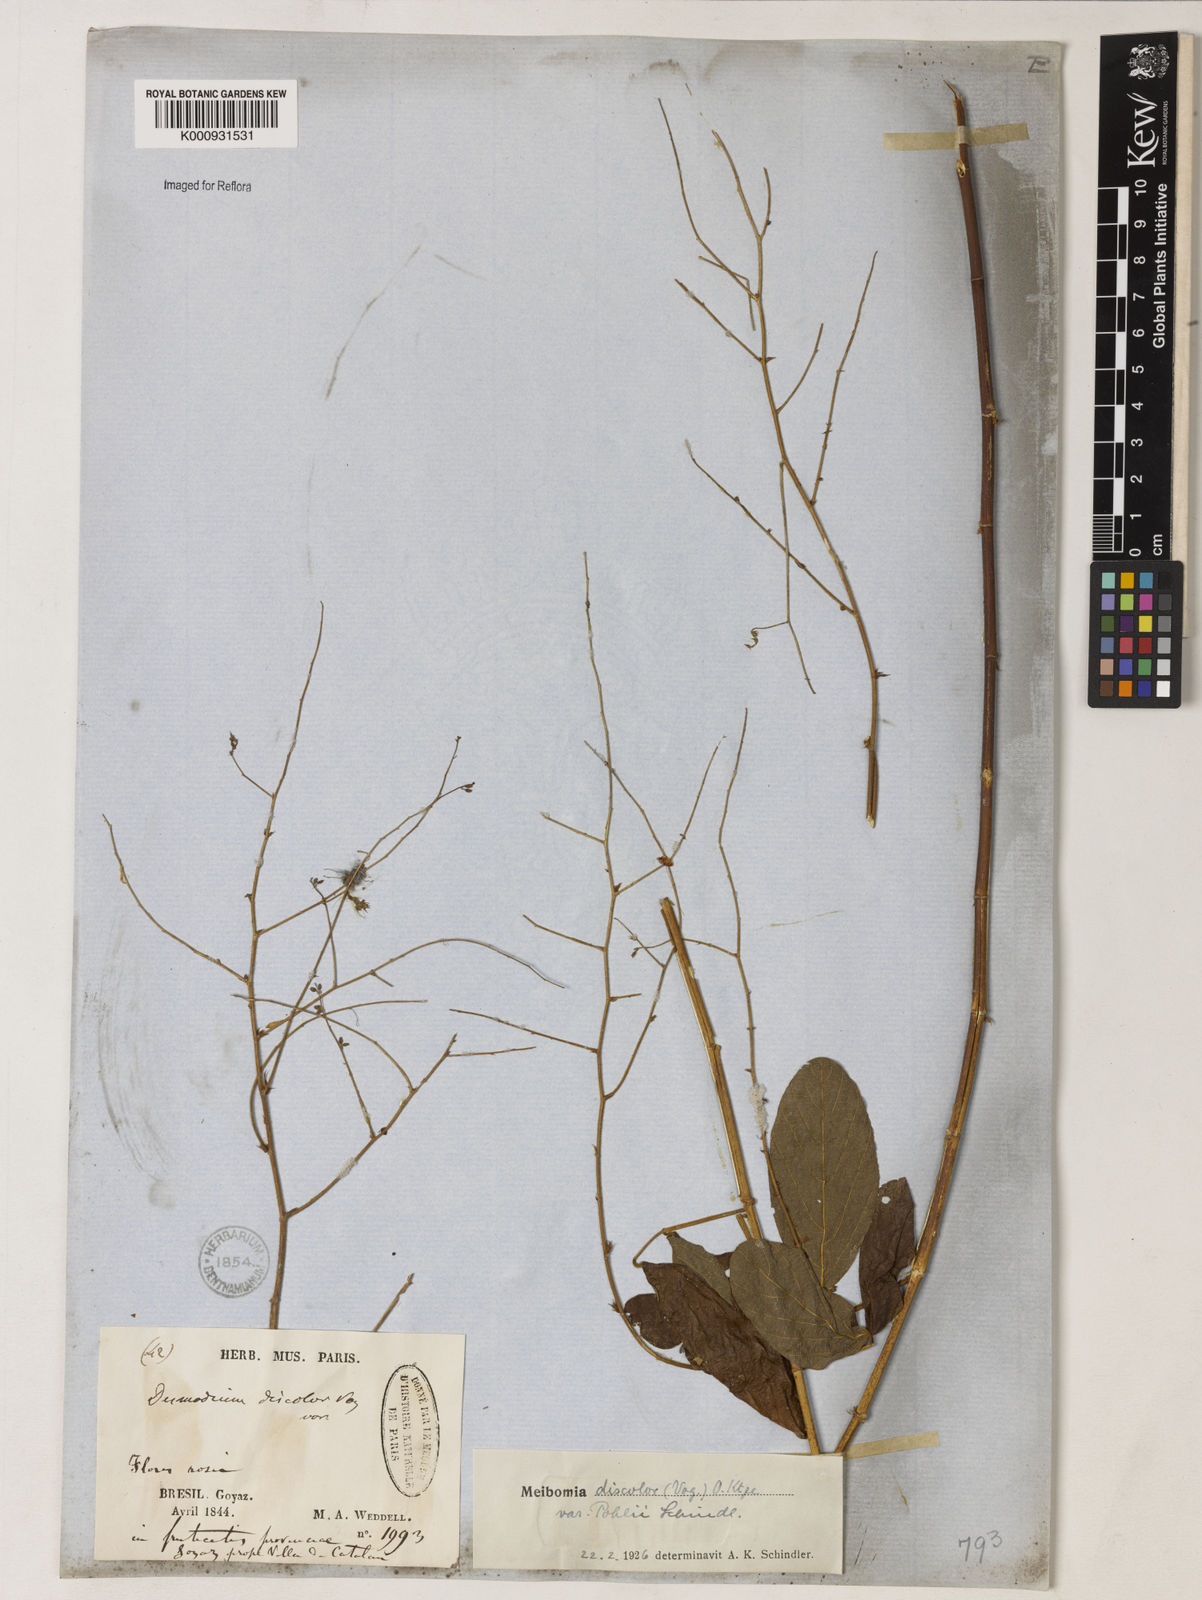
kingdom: Plantae
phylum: Tracheophyta
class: Magnoliopsida
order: Fabales
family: Fabaceae
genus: Desmodium
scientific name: Desmodium subsecundum
